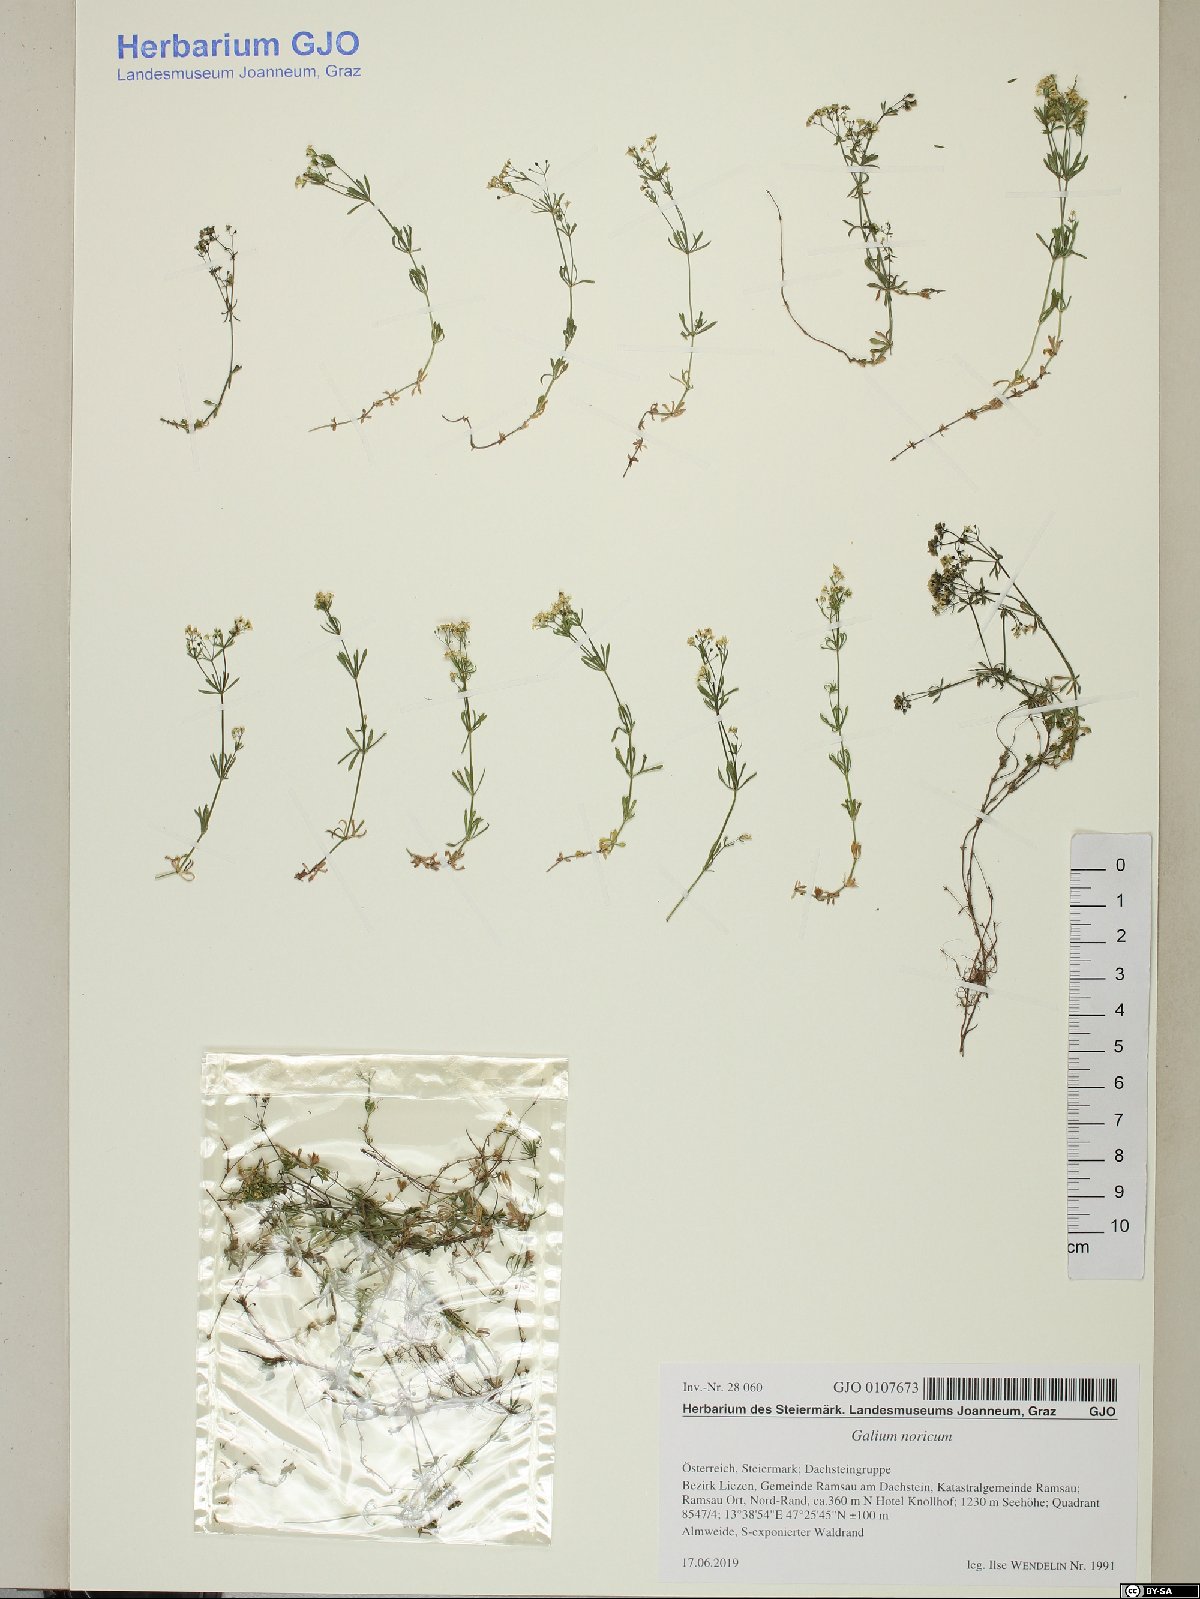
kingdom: Plantae
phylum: Tracheophyta
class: Magnoliopsida
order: Gentianales
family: Rubiaceae
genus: Galium
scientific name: Galium noricum
